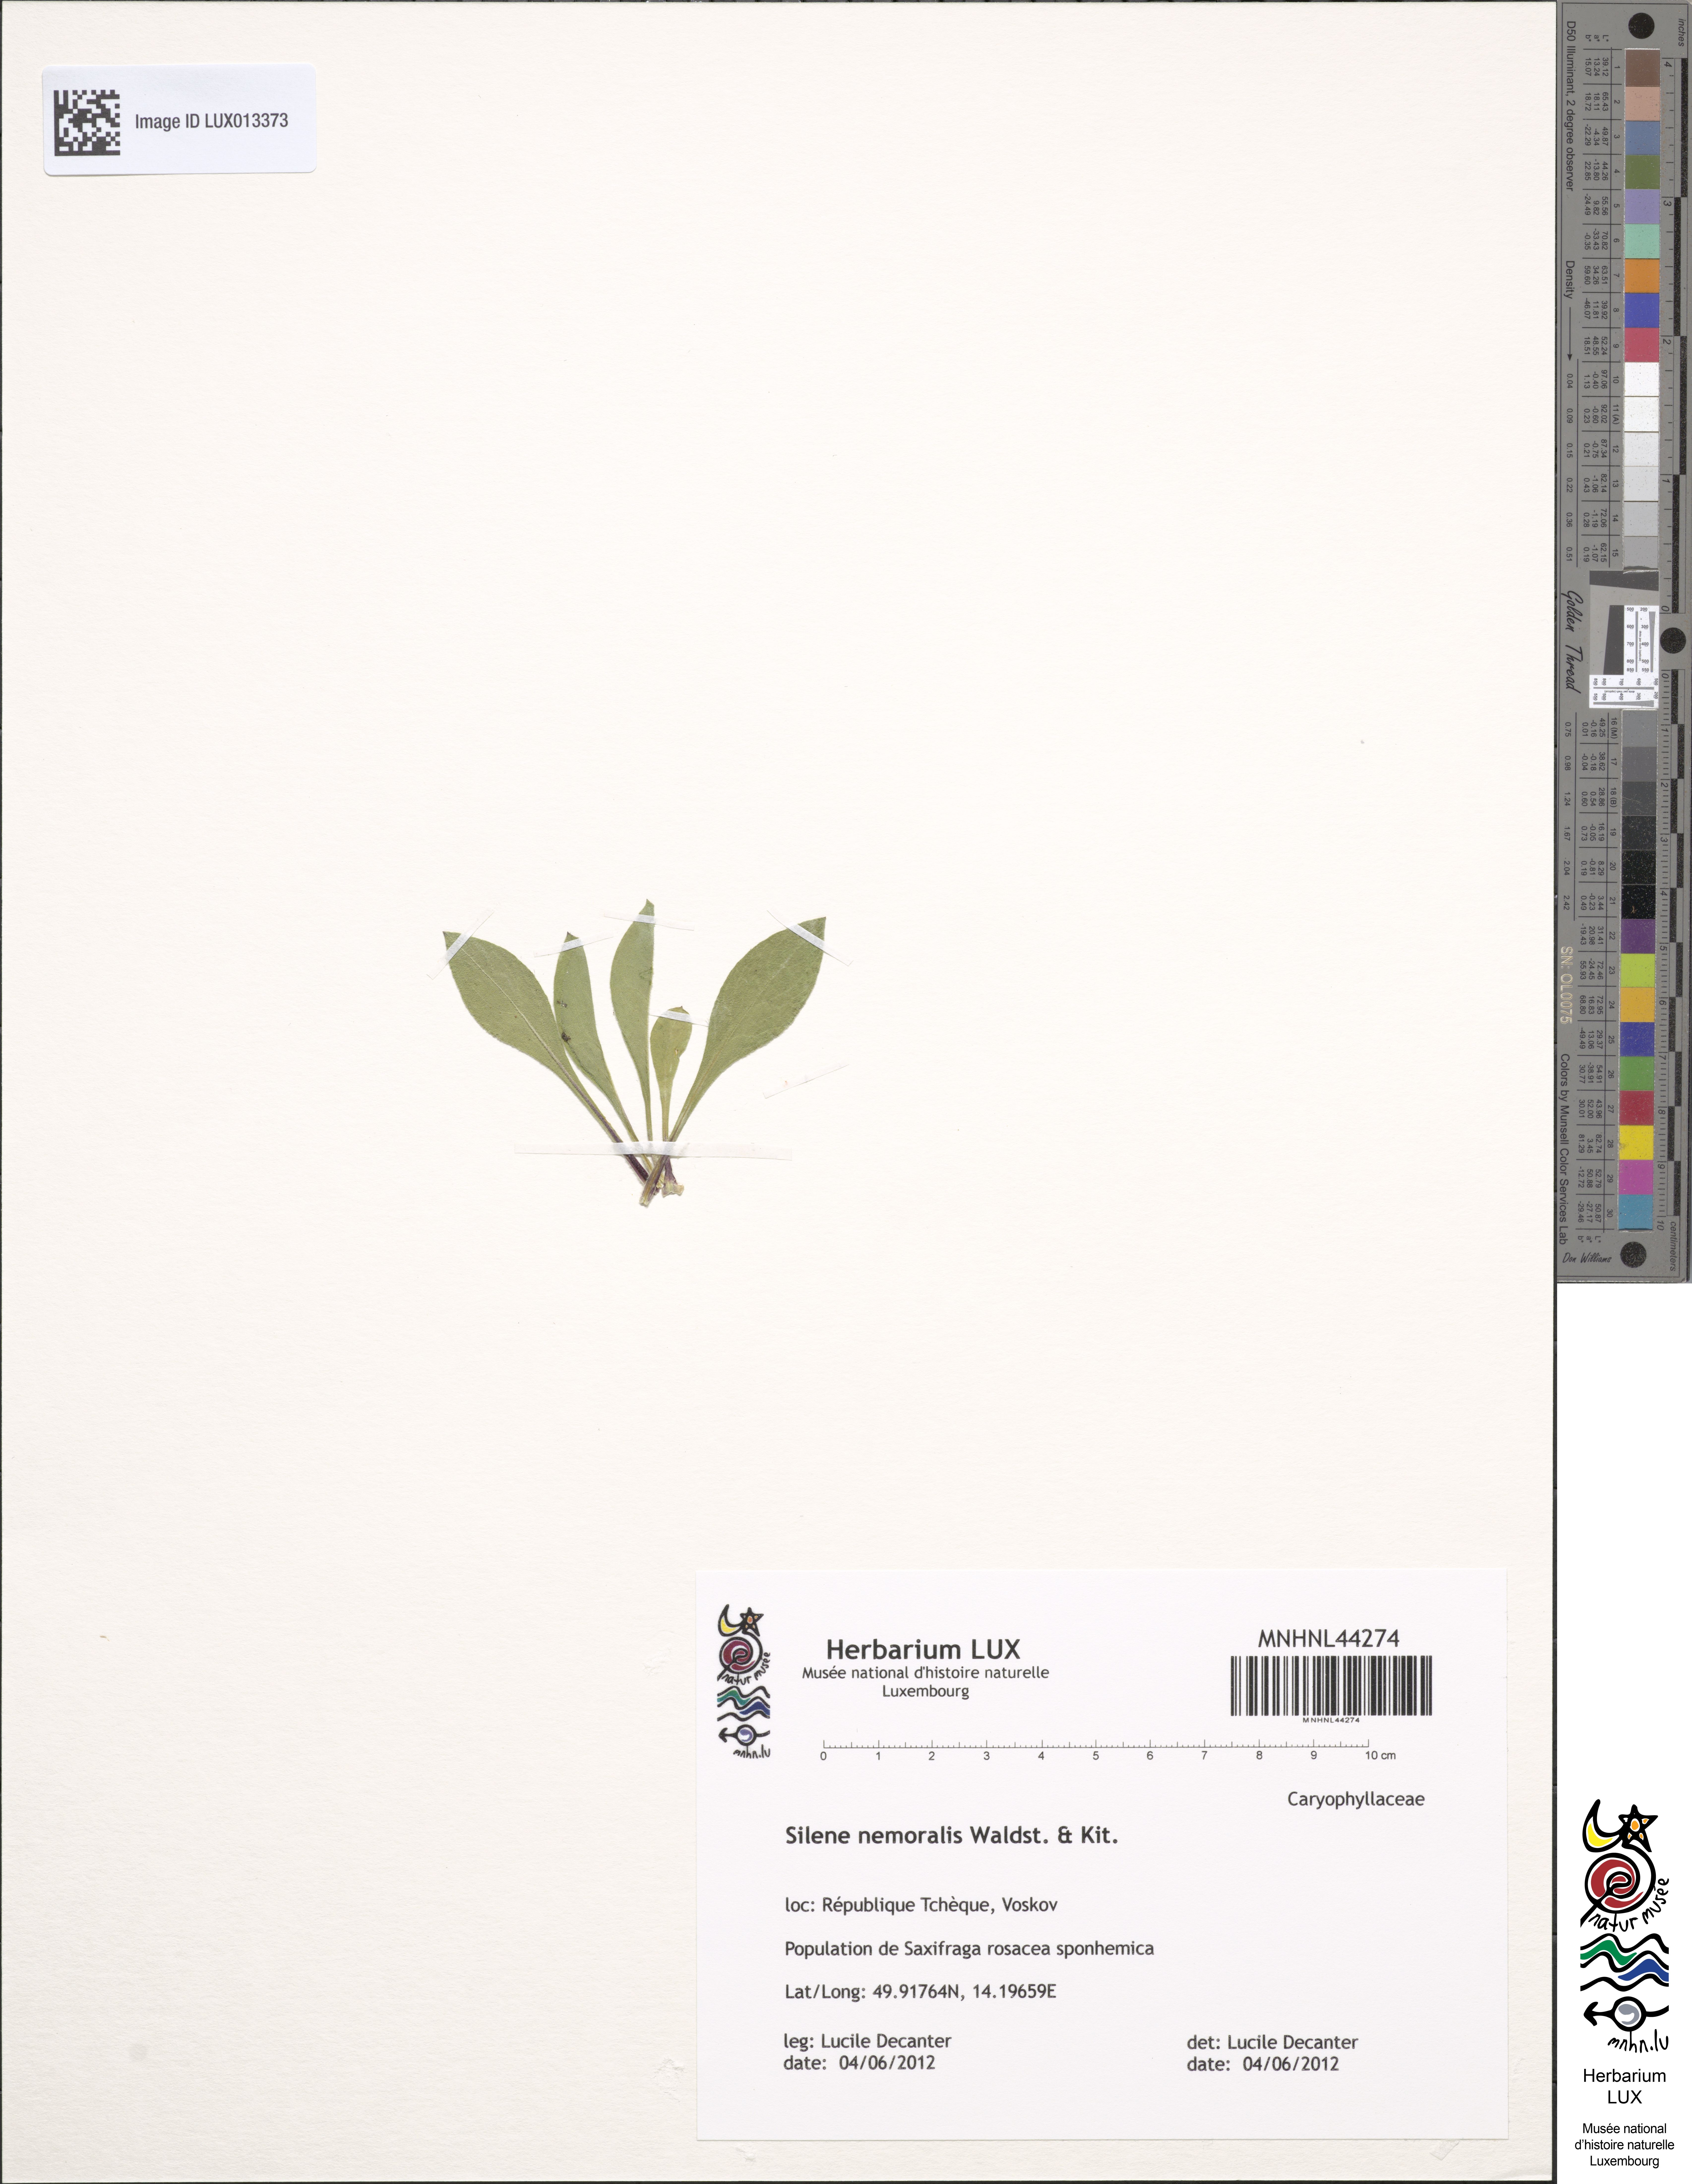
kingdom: Plantae
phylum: Tracheophyta
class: Magnoliopsida
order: Caryophyllales
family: Caryophyllaceae
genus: Silene
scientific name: Silene nemoralis
